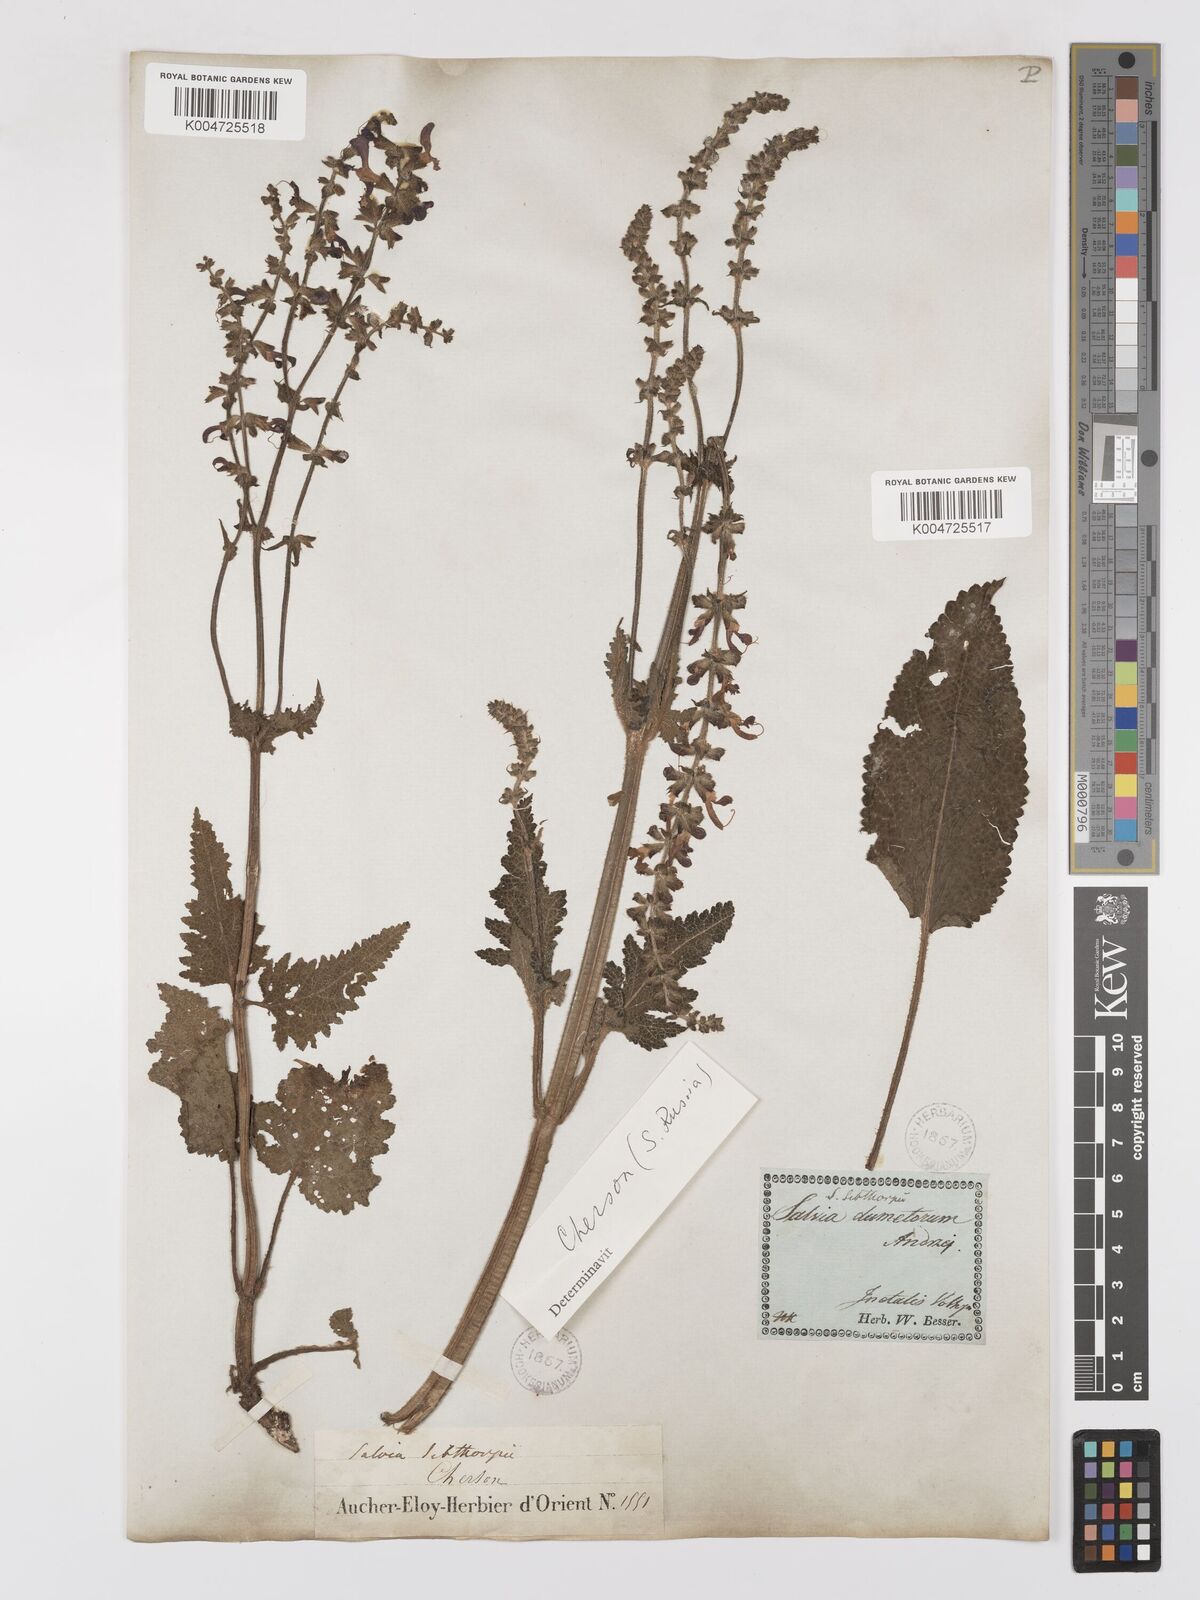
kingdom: Plantae
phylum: Tracheophyta
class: Magnoliopsida
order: Lamiales
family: Lamiaceae
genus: Salvia
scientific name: Salvia
